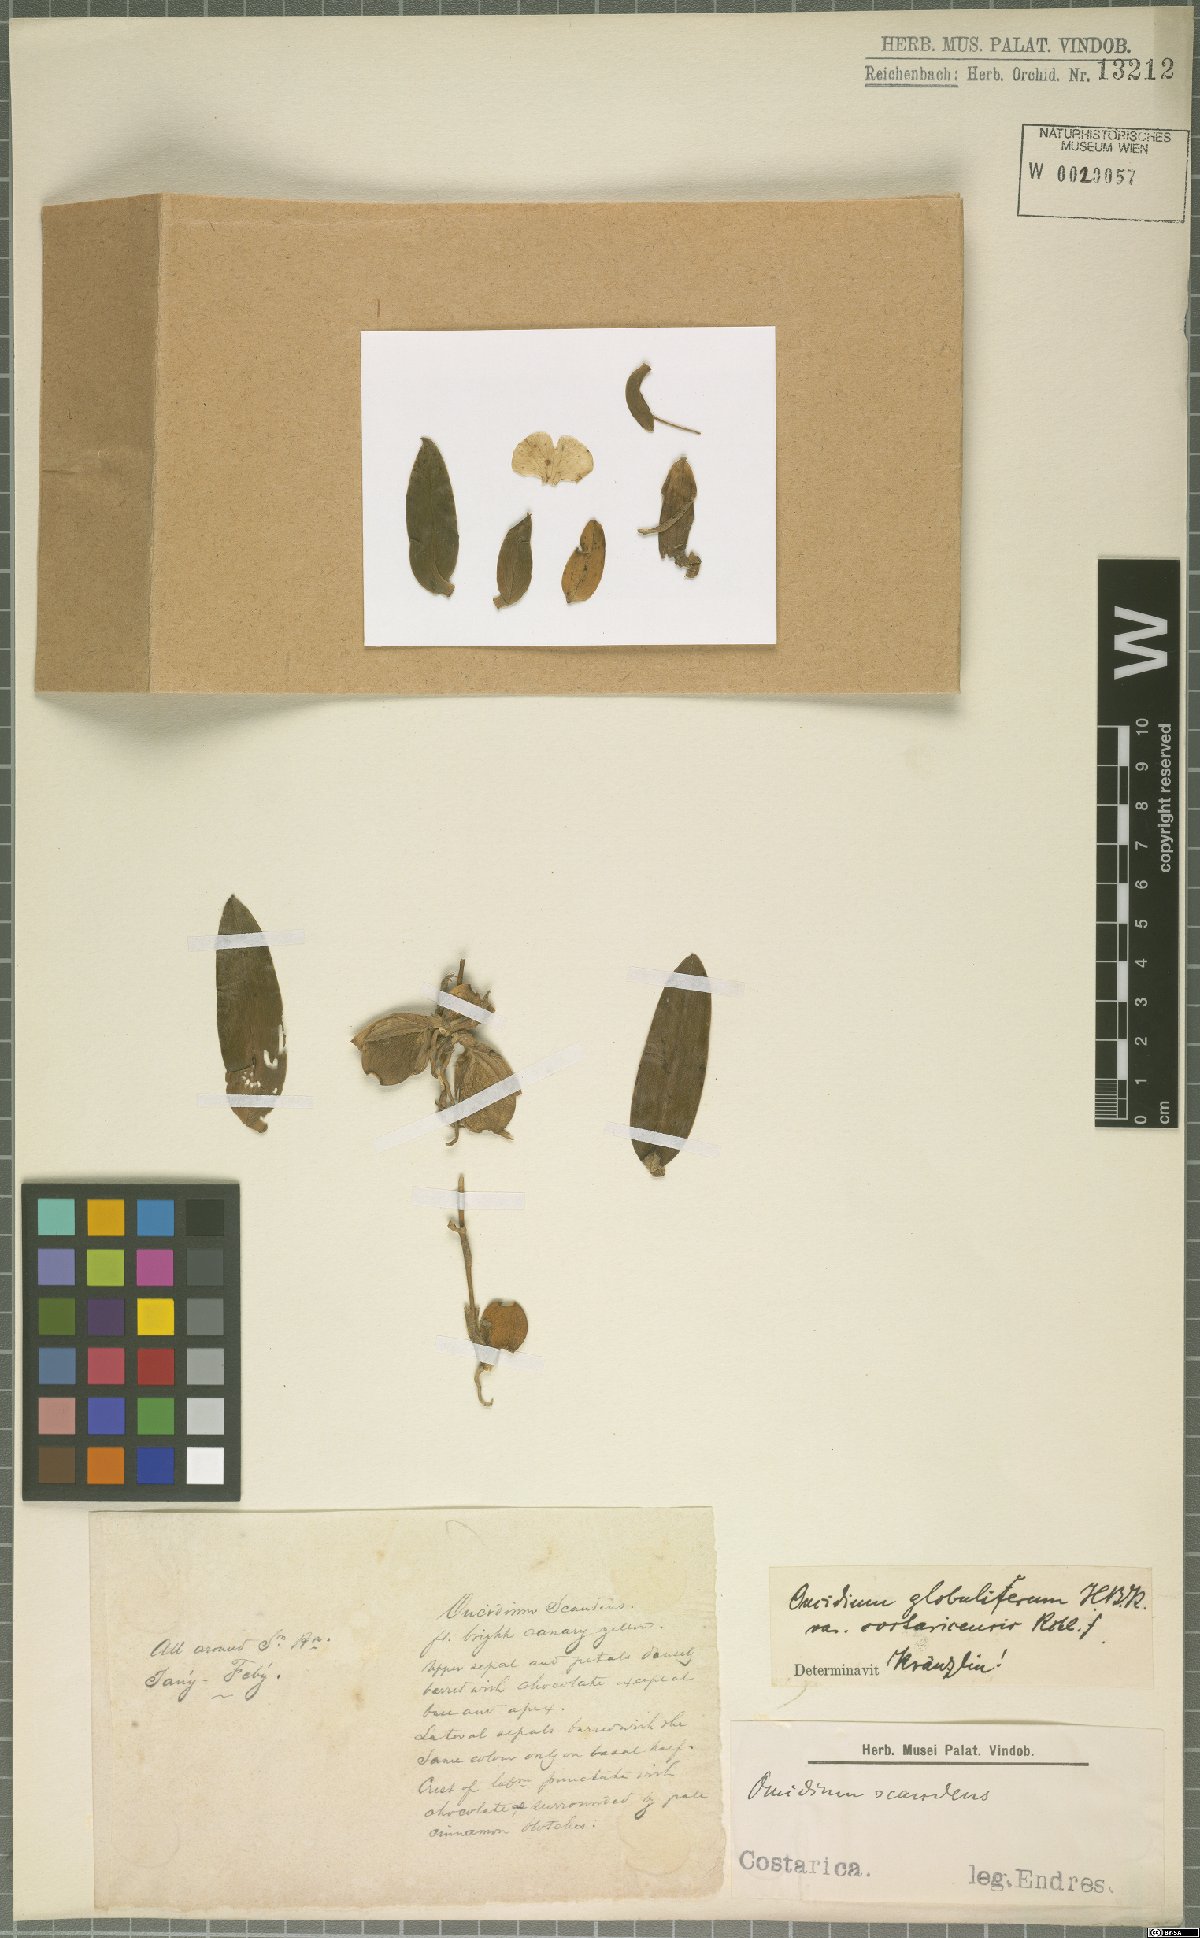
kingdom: Plantae
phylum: Tracheophyta
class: Liliopsida
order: Asparagales
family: Orchidaceae
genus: Otoglossum
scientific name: Otoglossum globuliferum
